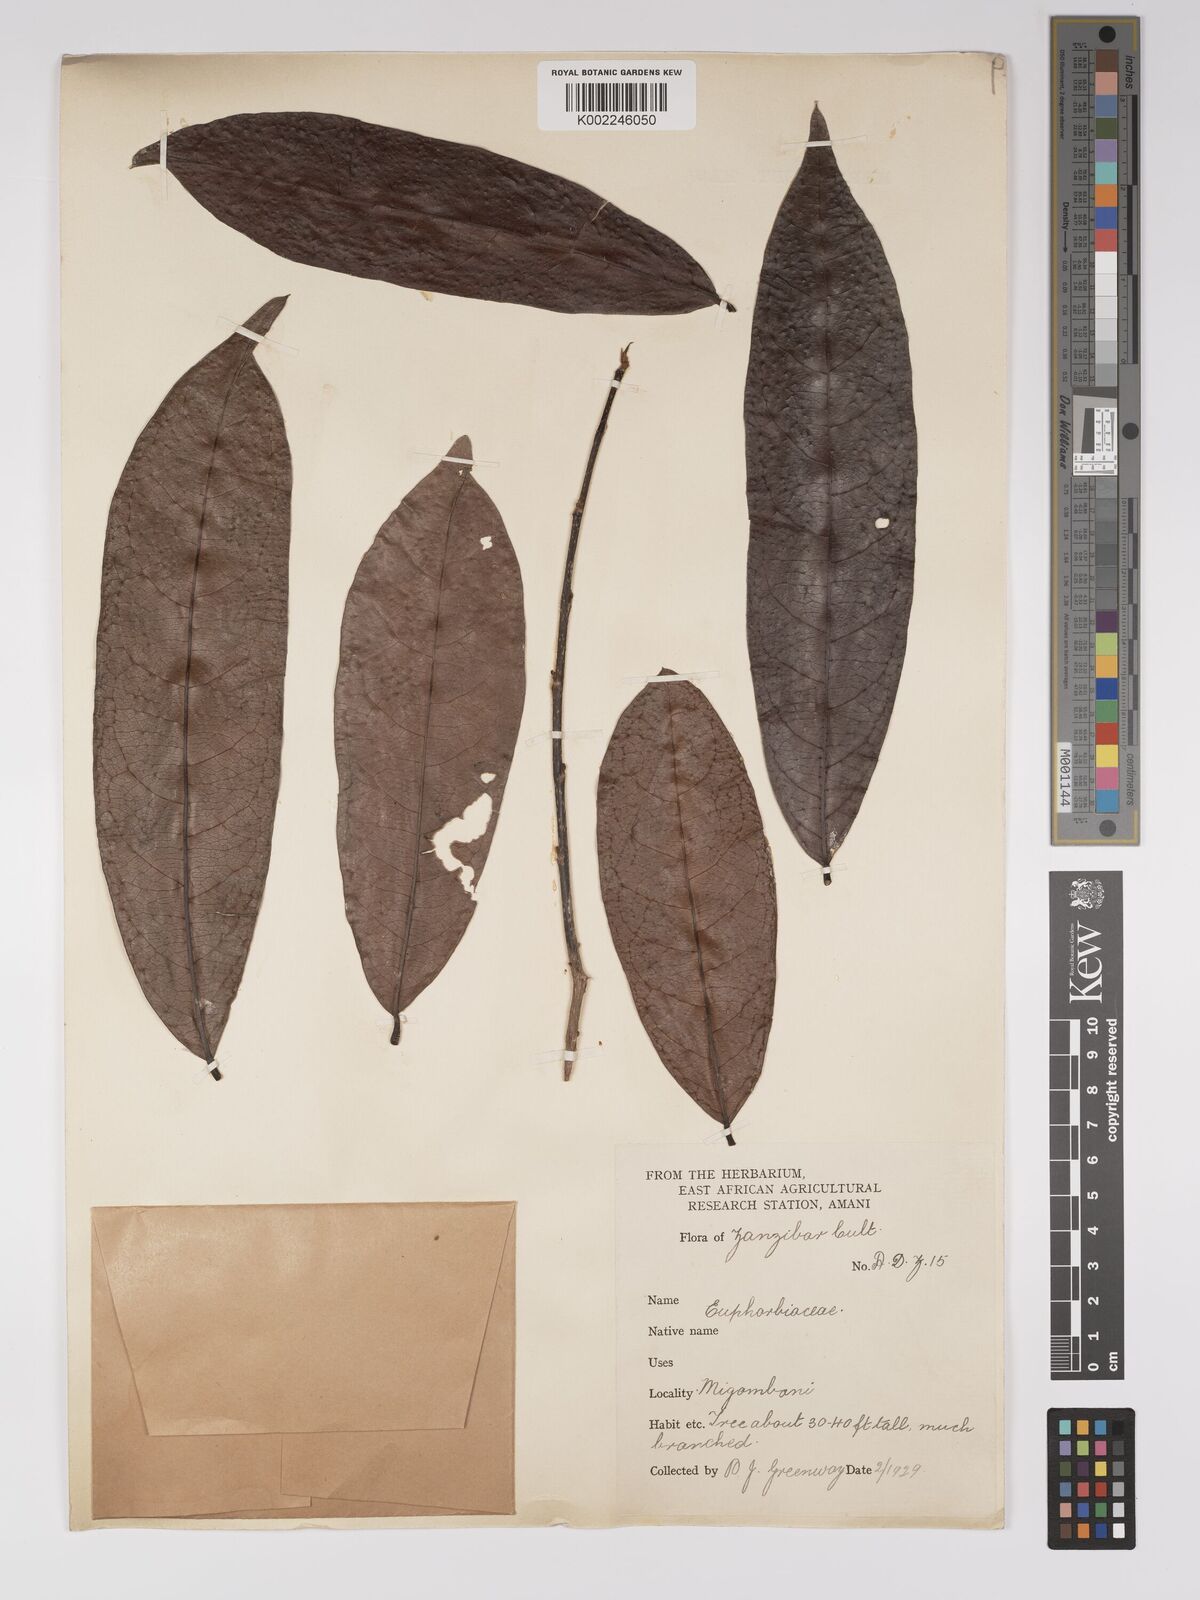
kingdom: Plantae
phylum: Tracheophyta
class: Magnoliopsida
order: Malpighiales
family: Euphorbiaceae
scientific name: Euphorbiaceae
